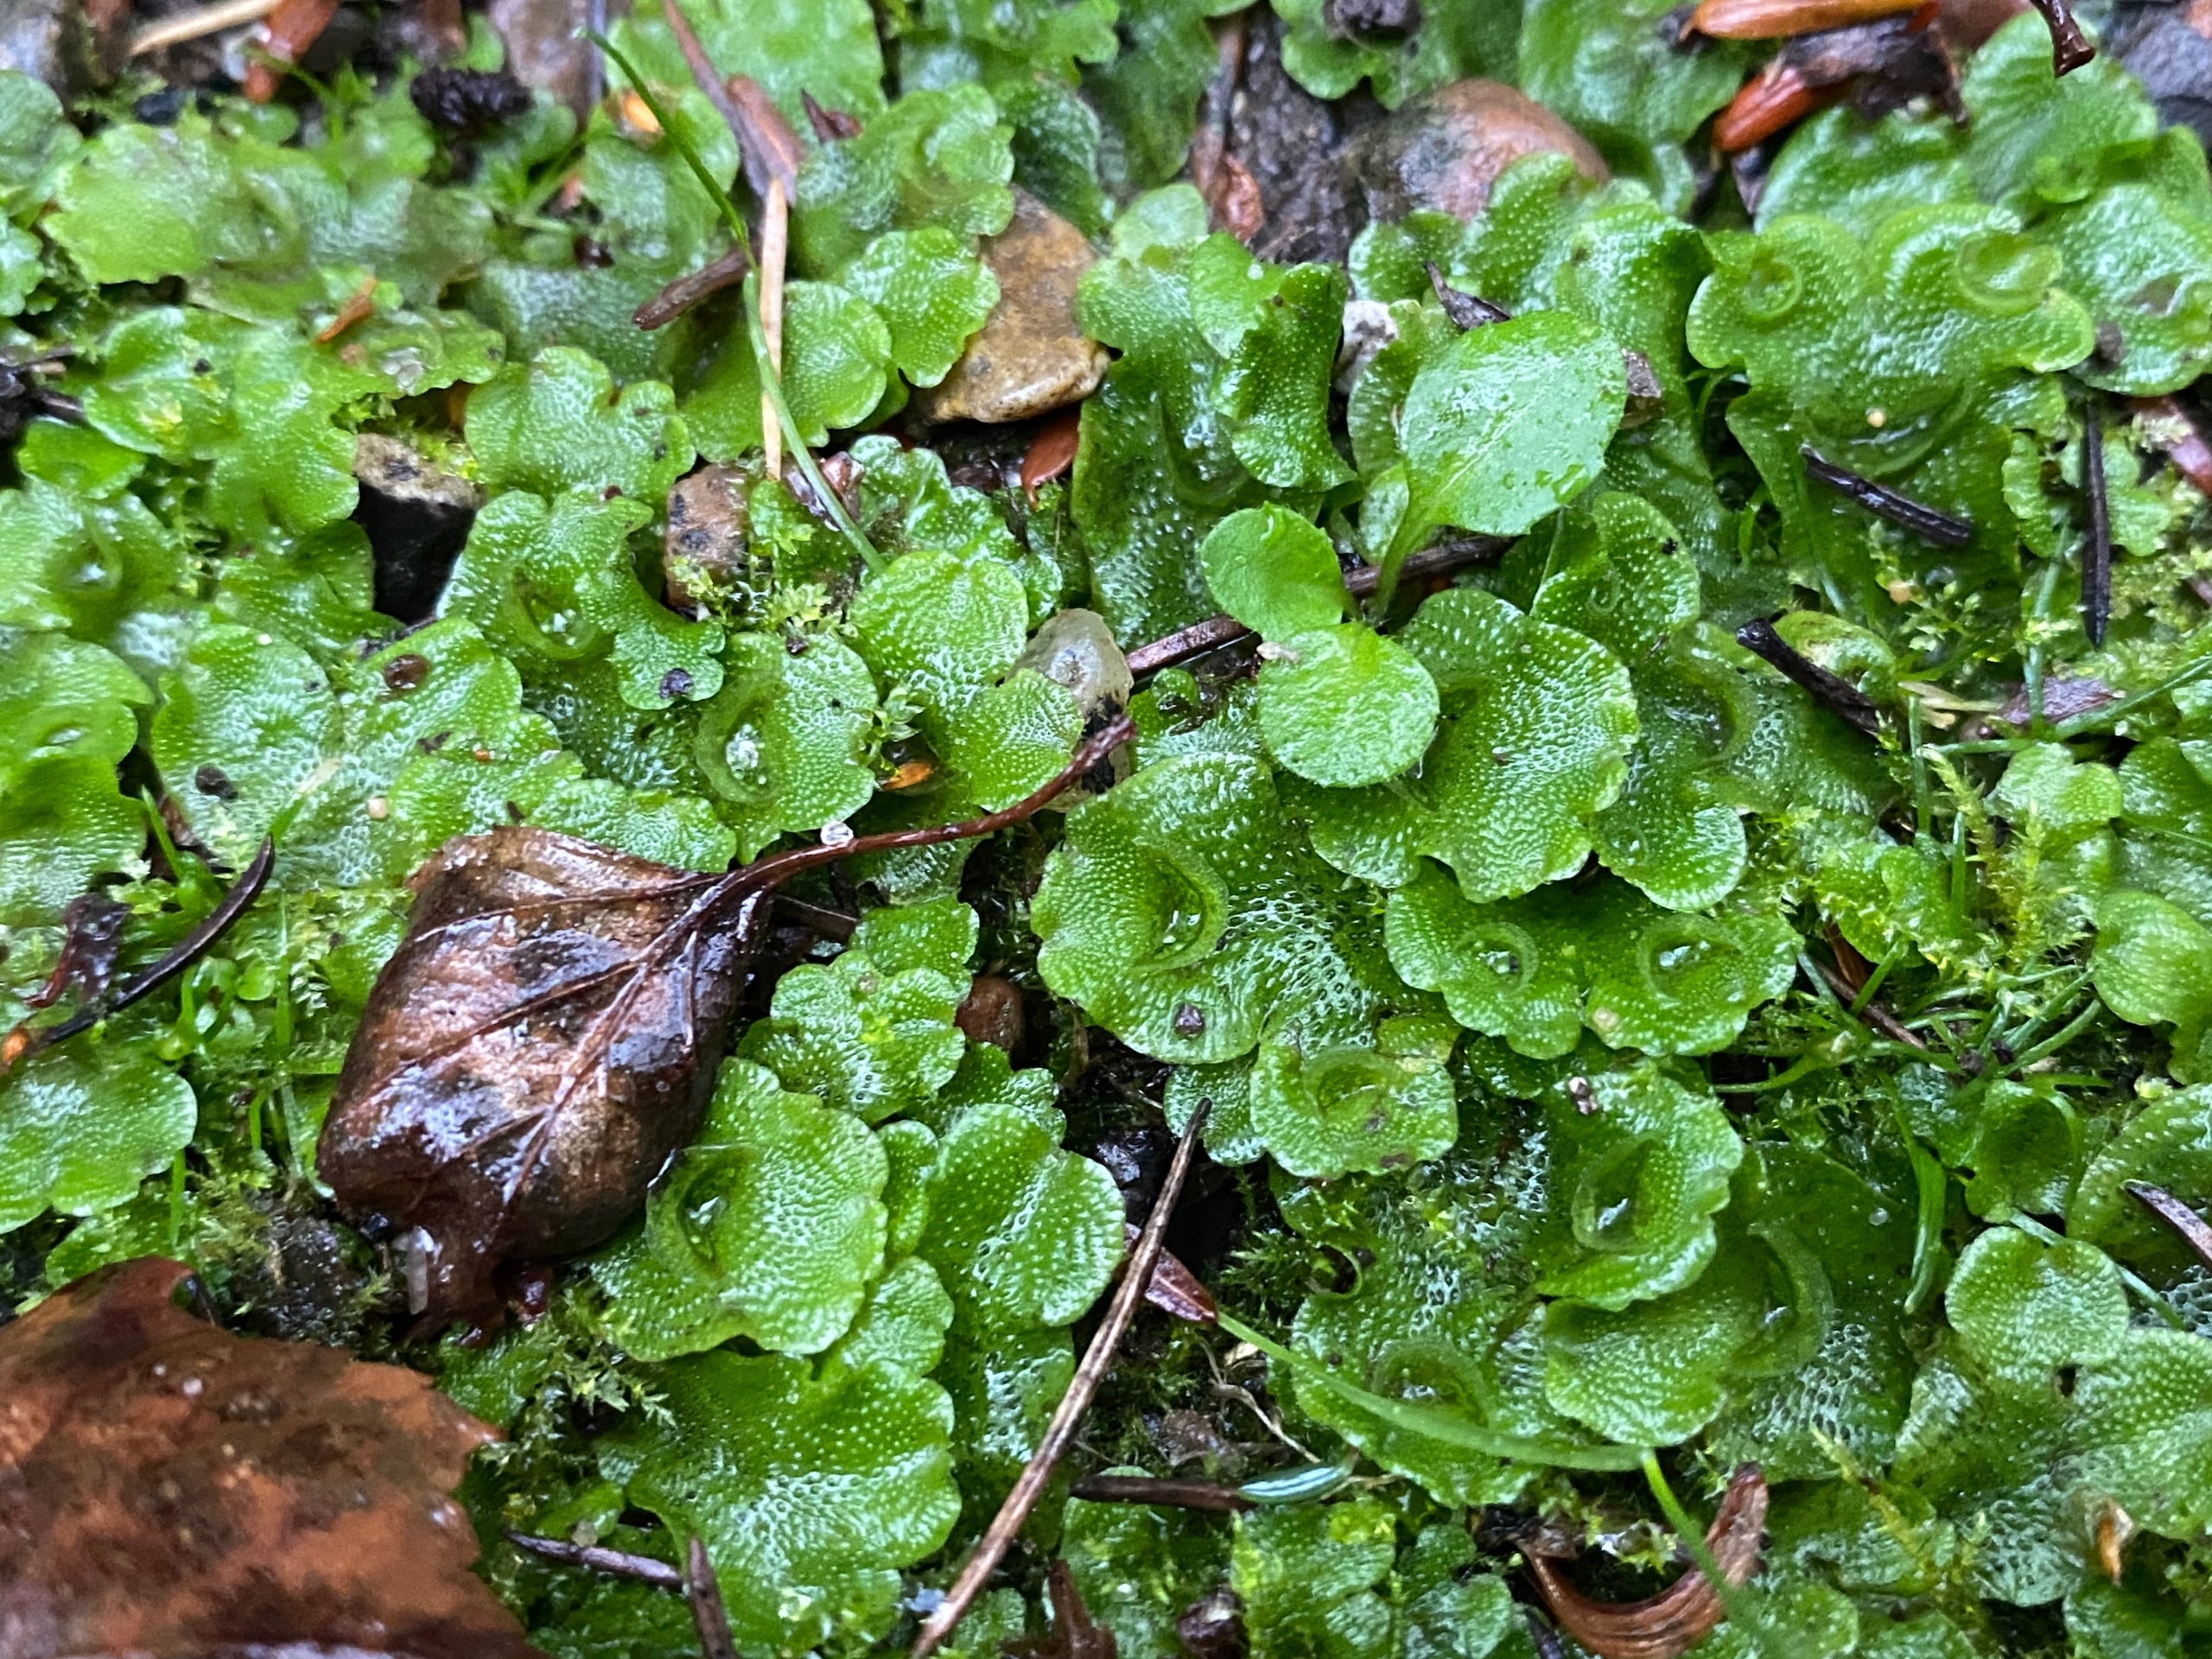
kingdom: Plantae
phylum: Marchantiophyta
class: Marchantiopsida
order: Lunulariales
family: Lunulariaceae
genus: Lunularia
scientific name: Lunularia cruciata
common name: Almindelig månemos
